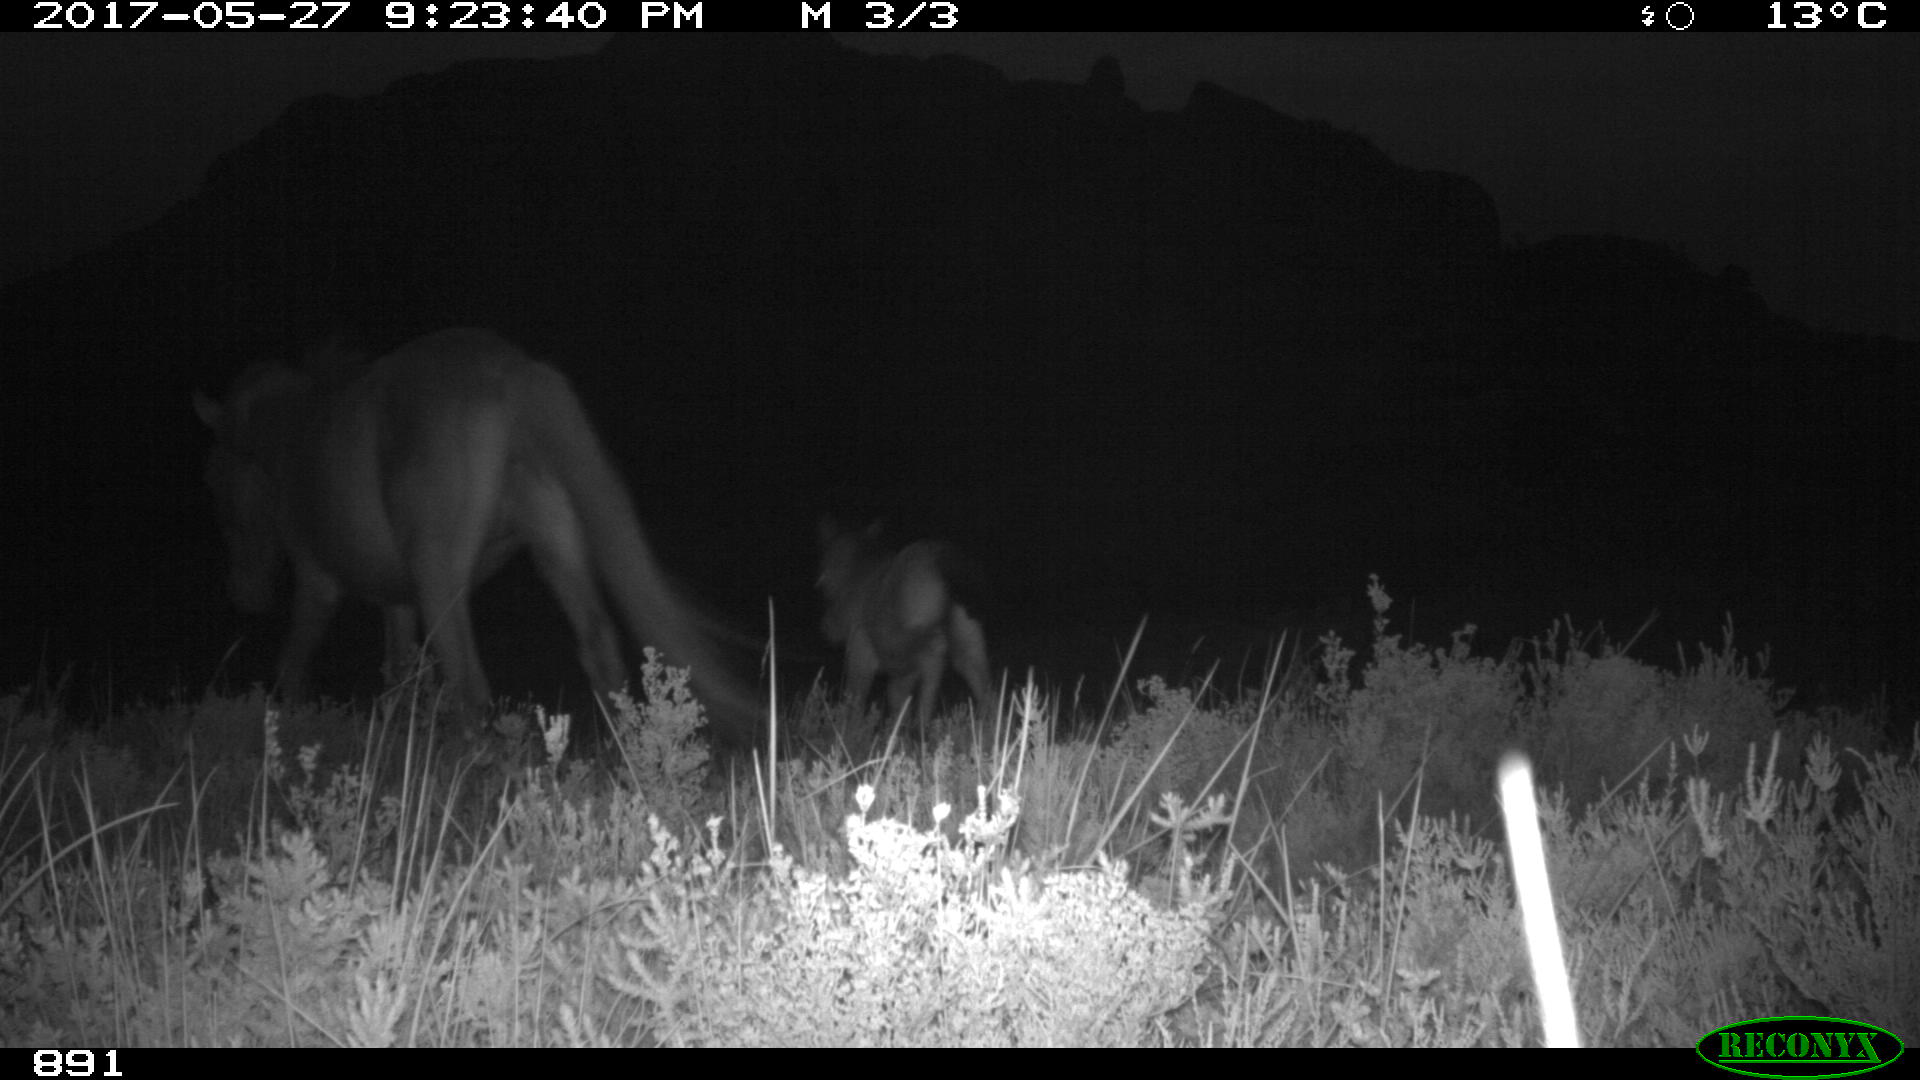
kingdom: Animalia
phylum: Chordata
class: Mammalia
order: Perissodactyla
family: Equidae
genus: Equus
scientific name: Equus caballus
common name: Horse
